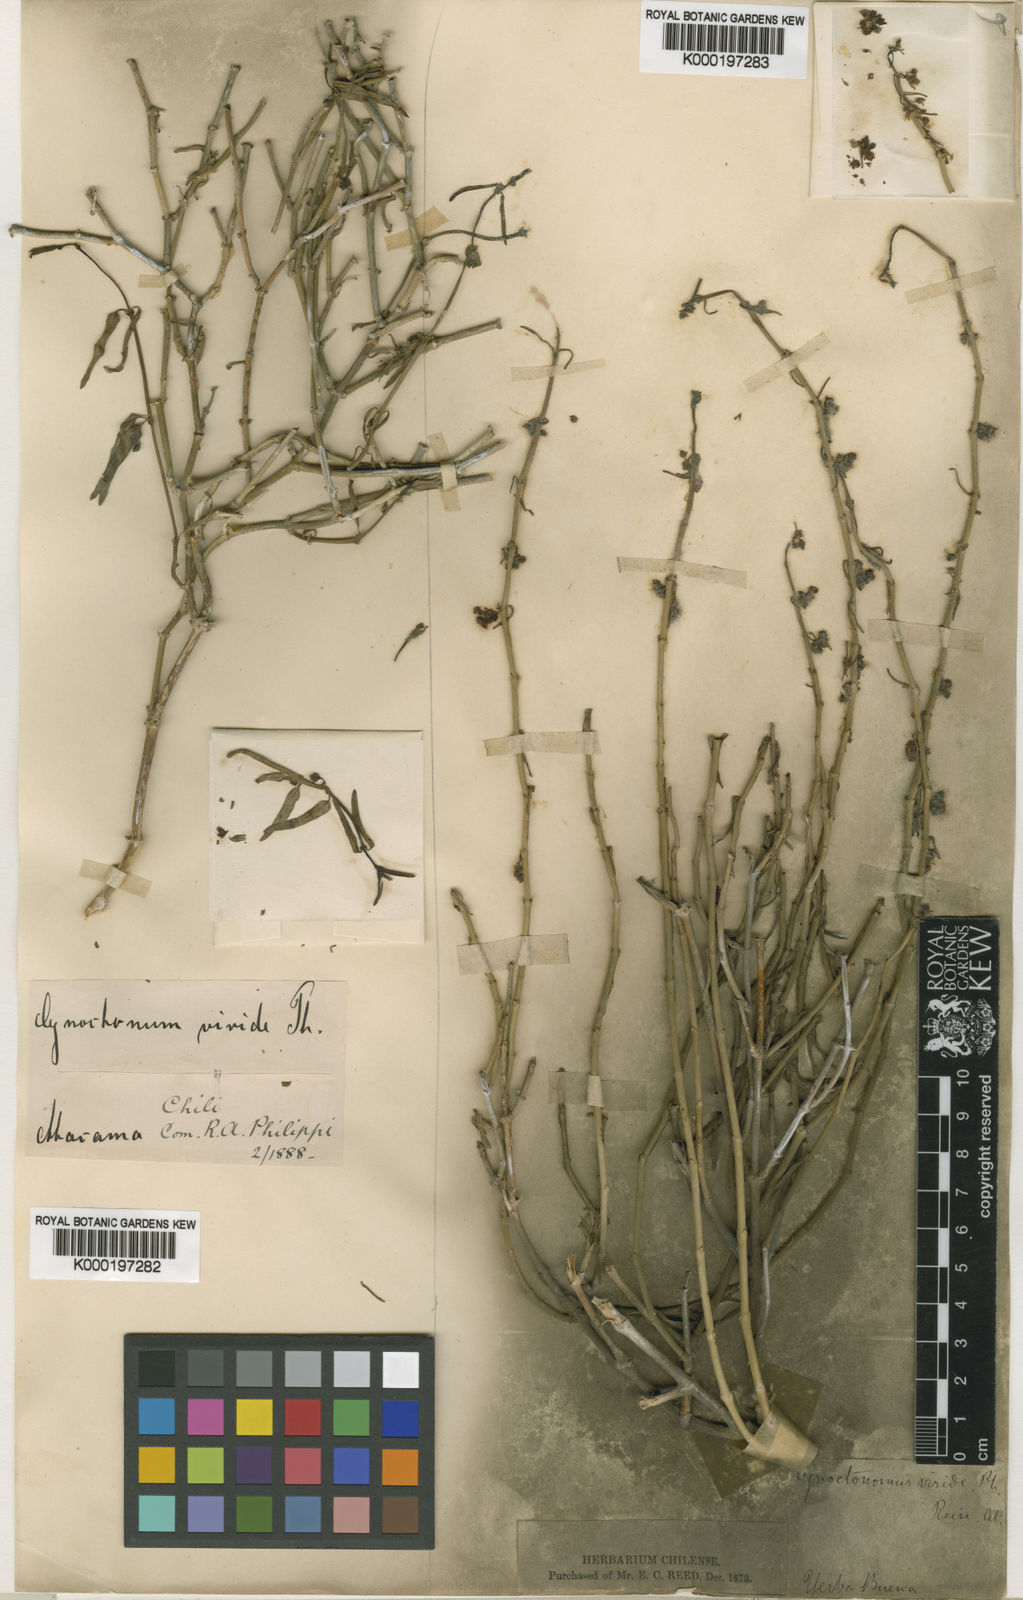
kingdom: Plantae
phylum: Tracheophyta
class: Magnoliopsida
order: Gentianales
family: Apocynaceae
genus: Chloropetalum
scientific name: Chloropetalum denticulatum
